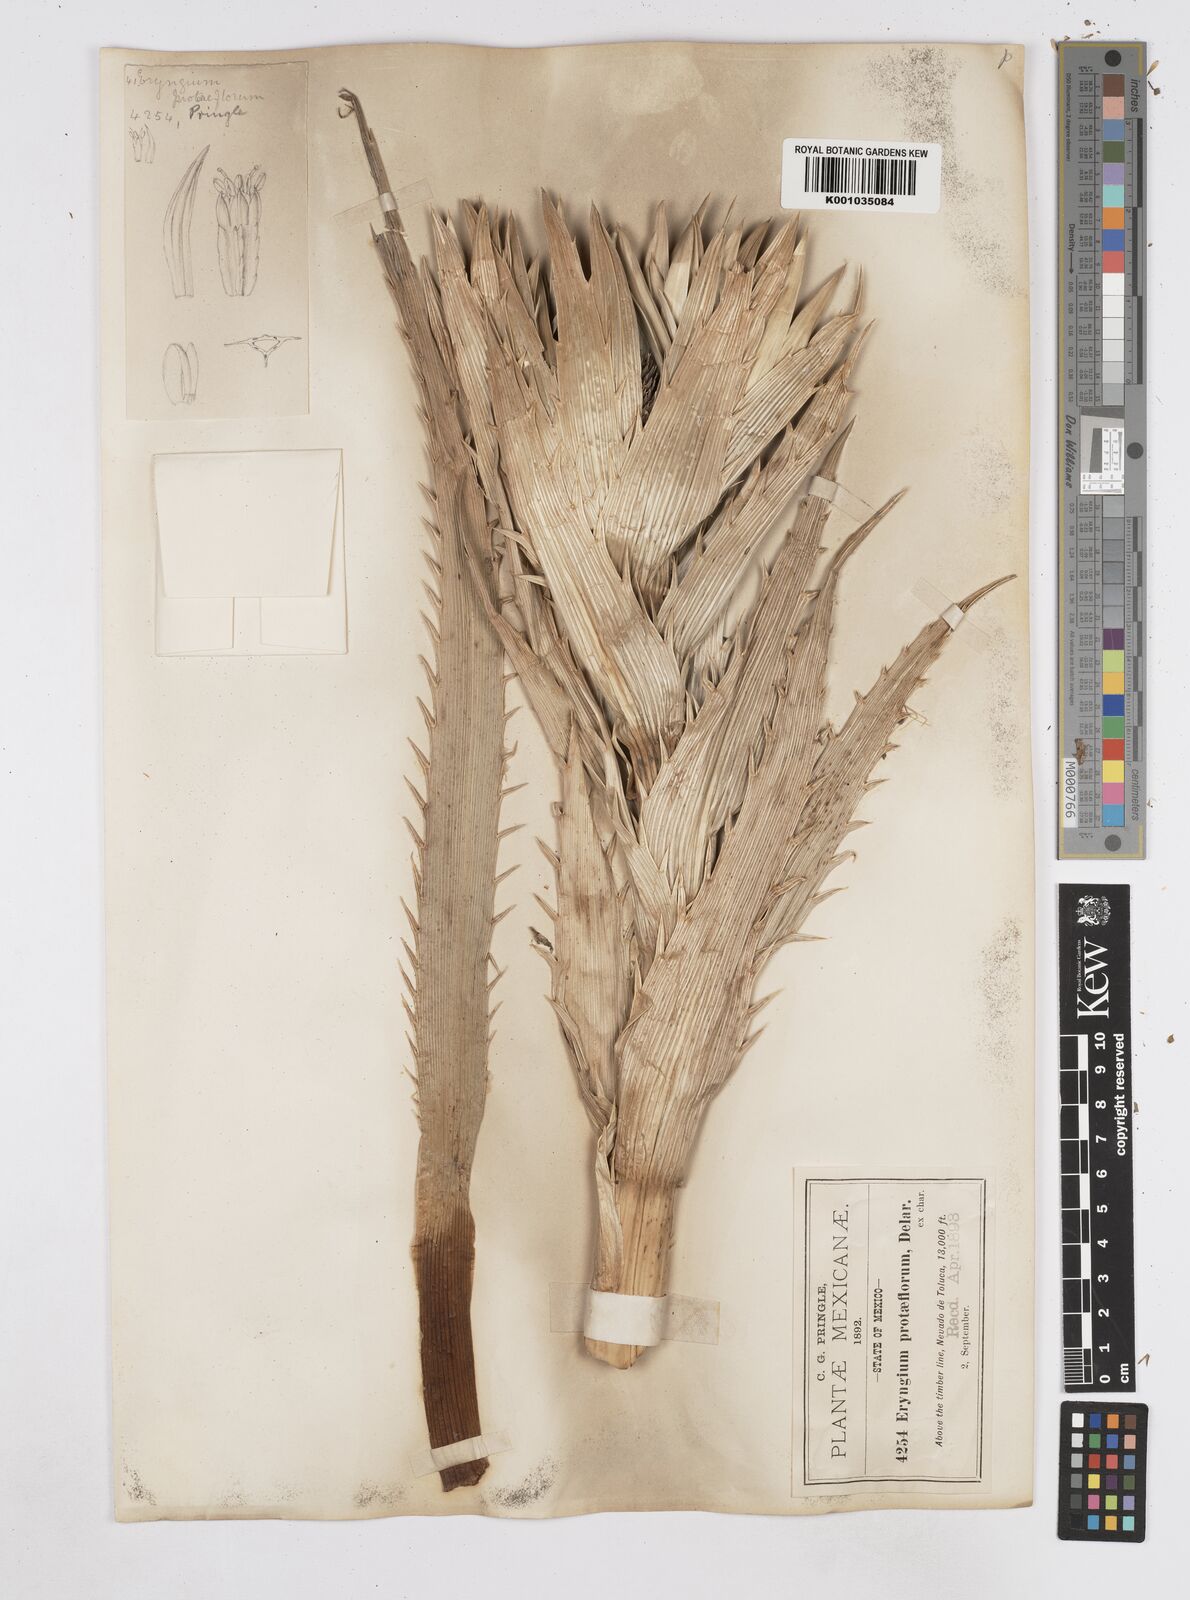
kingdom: Plantae
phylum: Tracheophyta
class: Magnoliopsida
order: Apiales
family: Apiaceae
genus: Eryngium
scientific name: Eryngium proteiflorum
